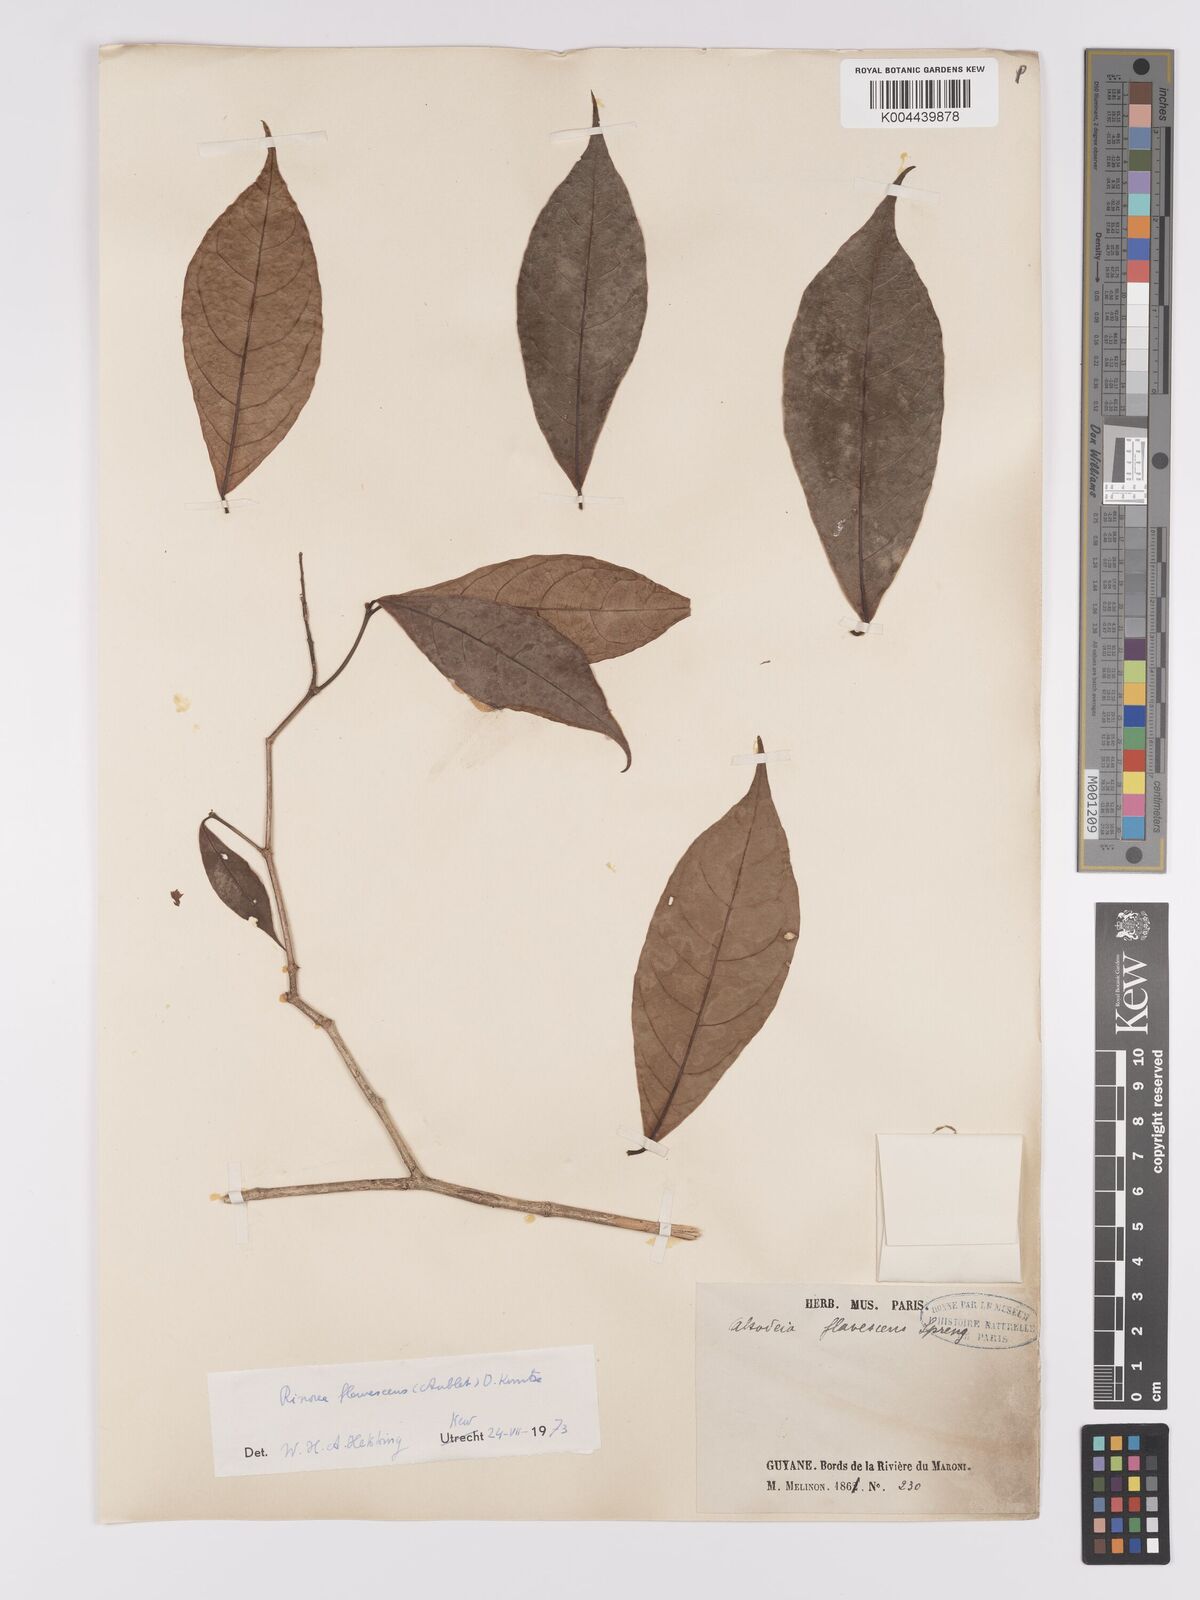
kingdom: Plantae
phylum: Tracheophyta
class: Magnoliopsida
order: Malpighiales
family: Violaceae
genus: Rinorea
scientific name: Rinorea flavescens
